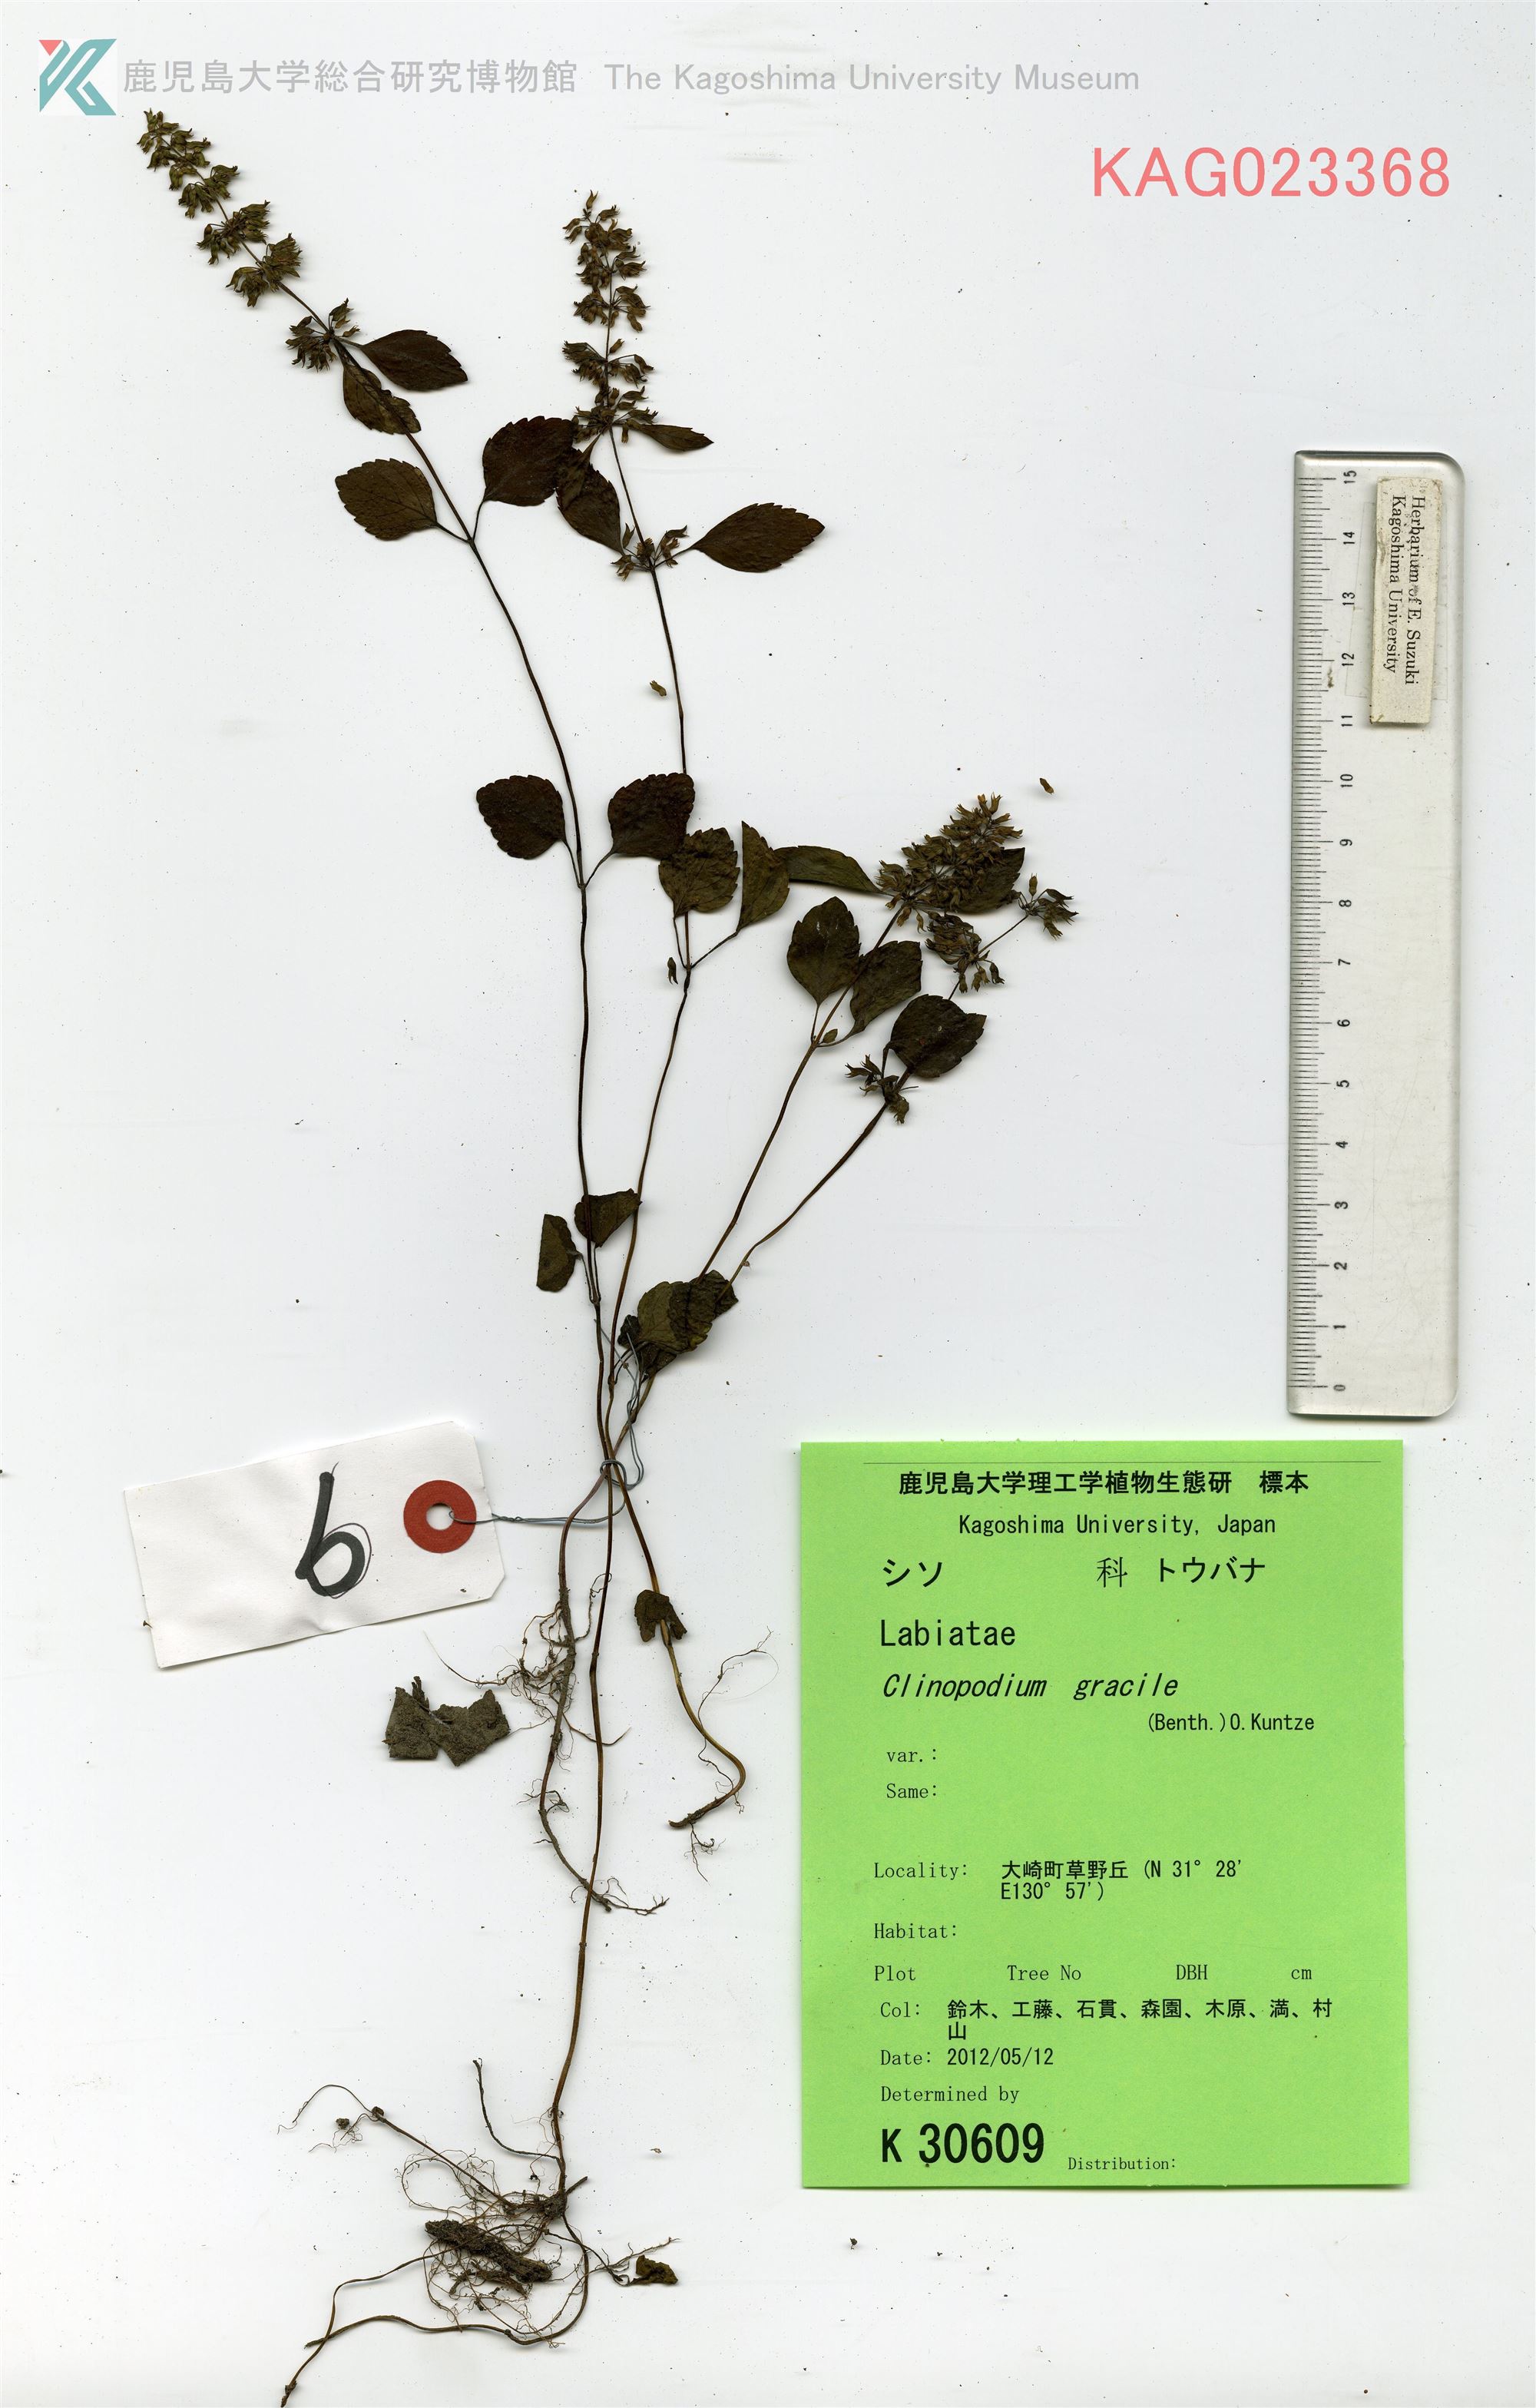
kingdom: Plantae
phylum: Tracheophyta
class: Magnoliopsida
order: Lamiales
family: Lamiaceae
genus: Clinopodium
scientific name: Clinopodium gracile
